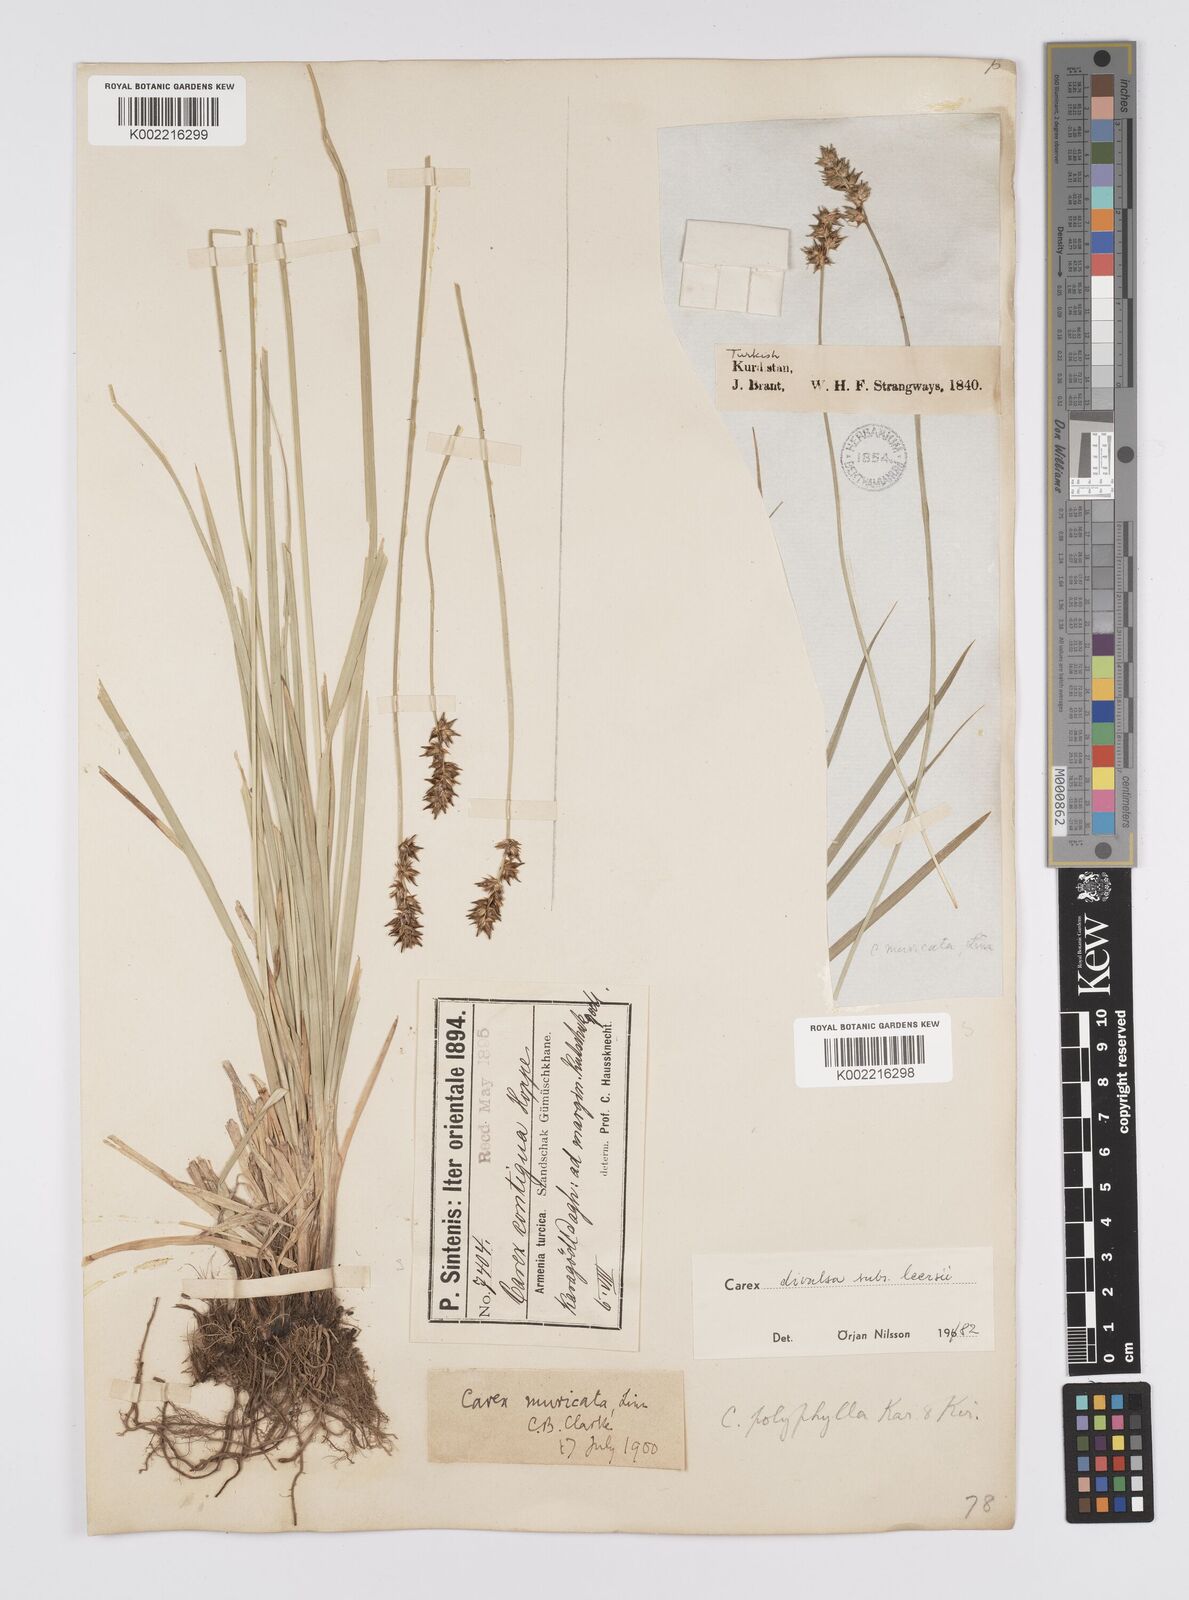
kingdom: Plantae
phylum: Tracheophyta
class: Liliopsida
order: Poales
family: Cyperaceae
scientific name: Cyperaceae
